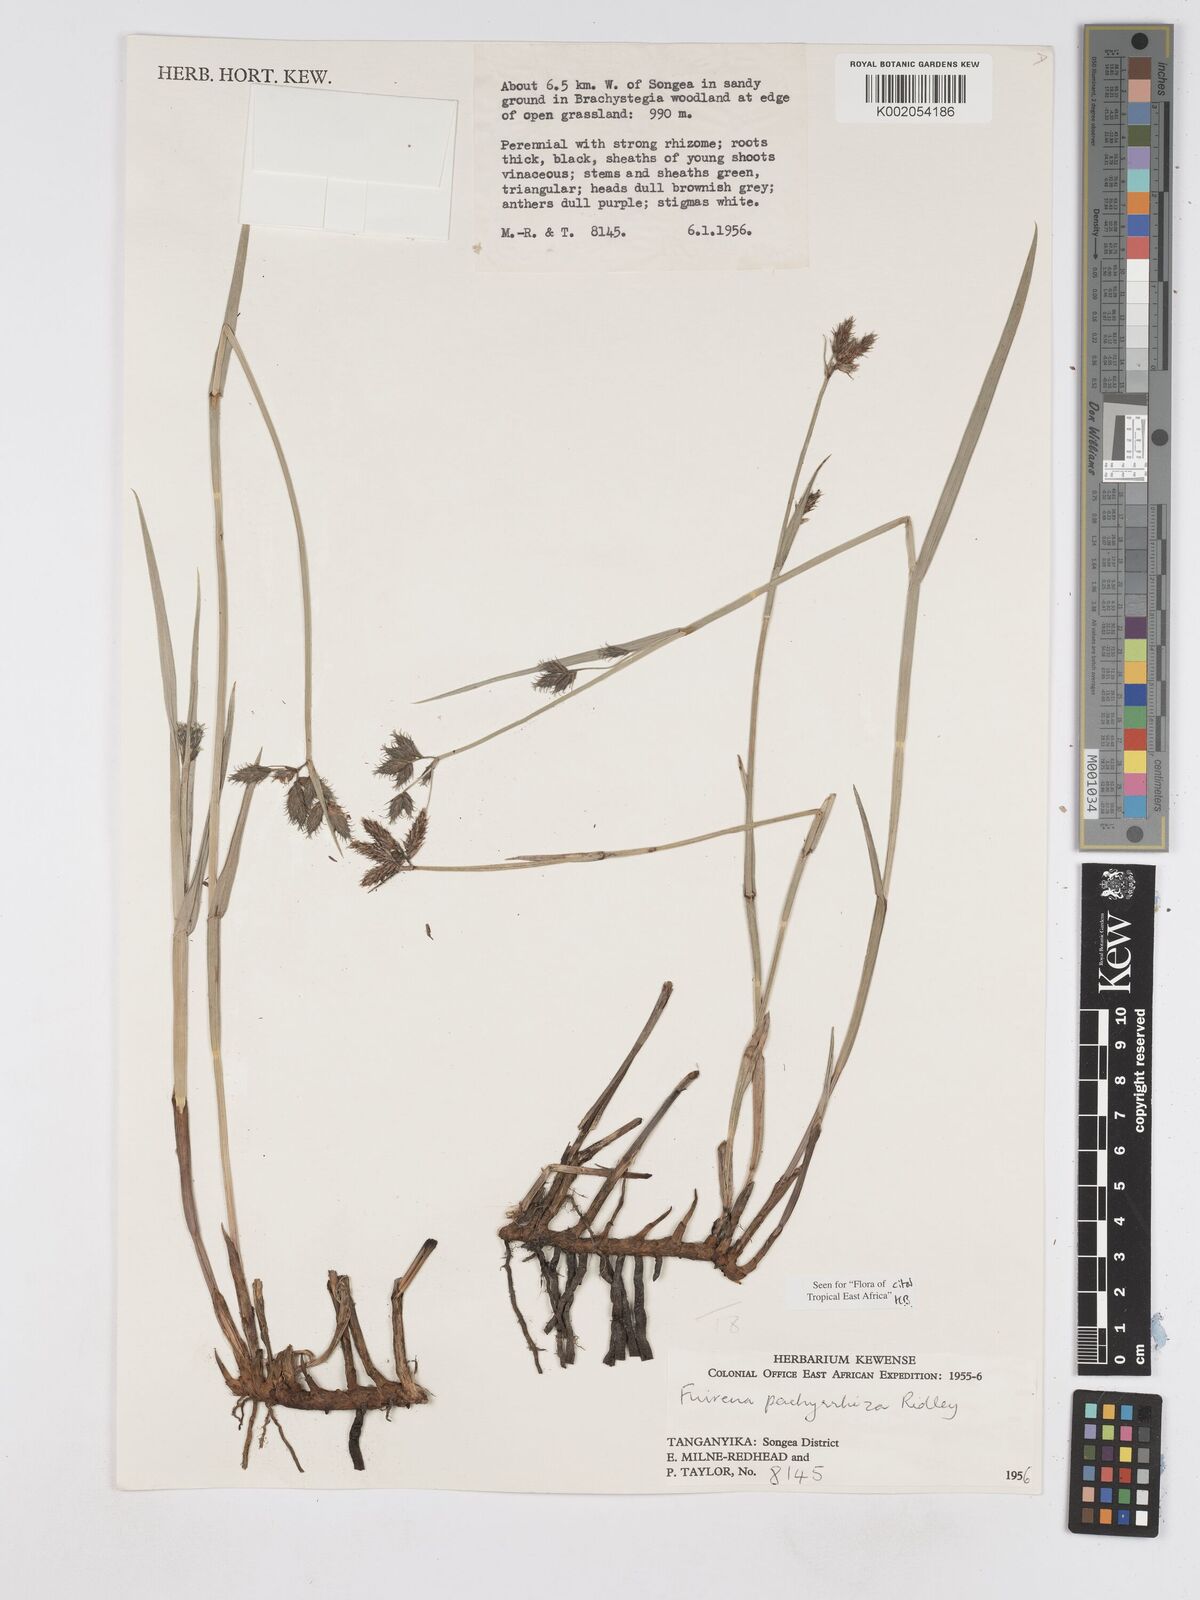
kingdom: Plantae
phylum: Tracheophyta
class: Liliopsida
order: Poales
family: Cyperaceae
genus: Fuirena
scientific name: Fuirena pachyrrhiza
